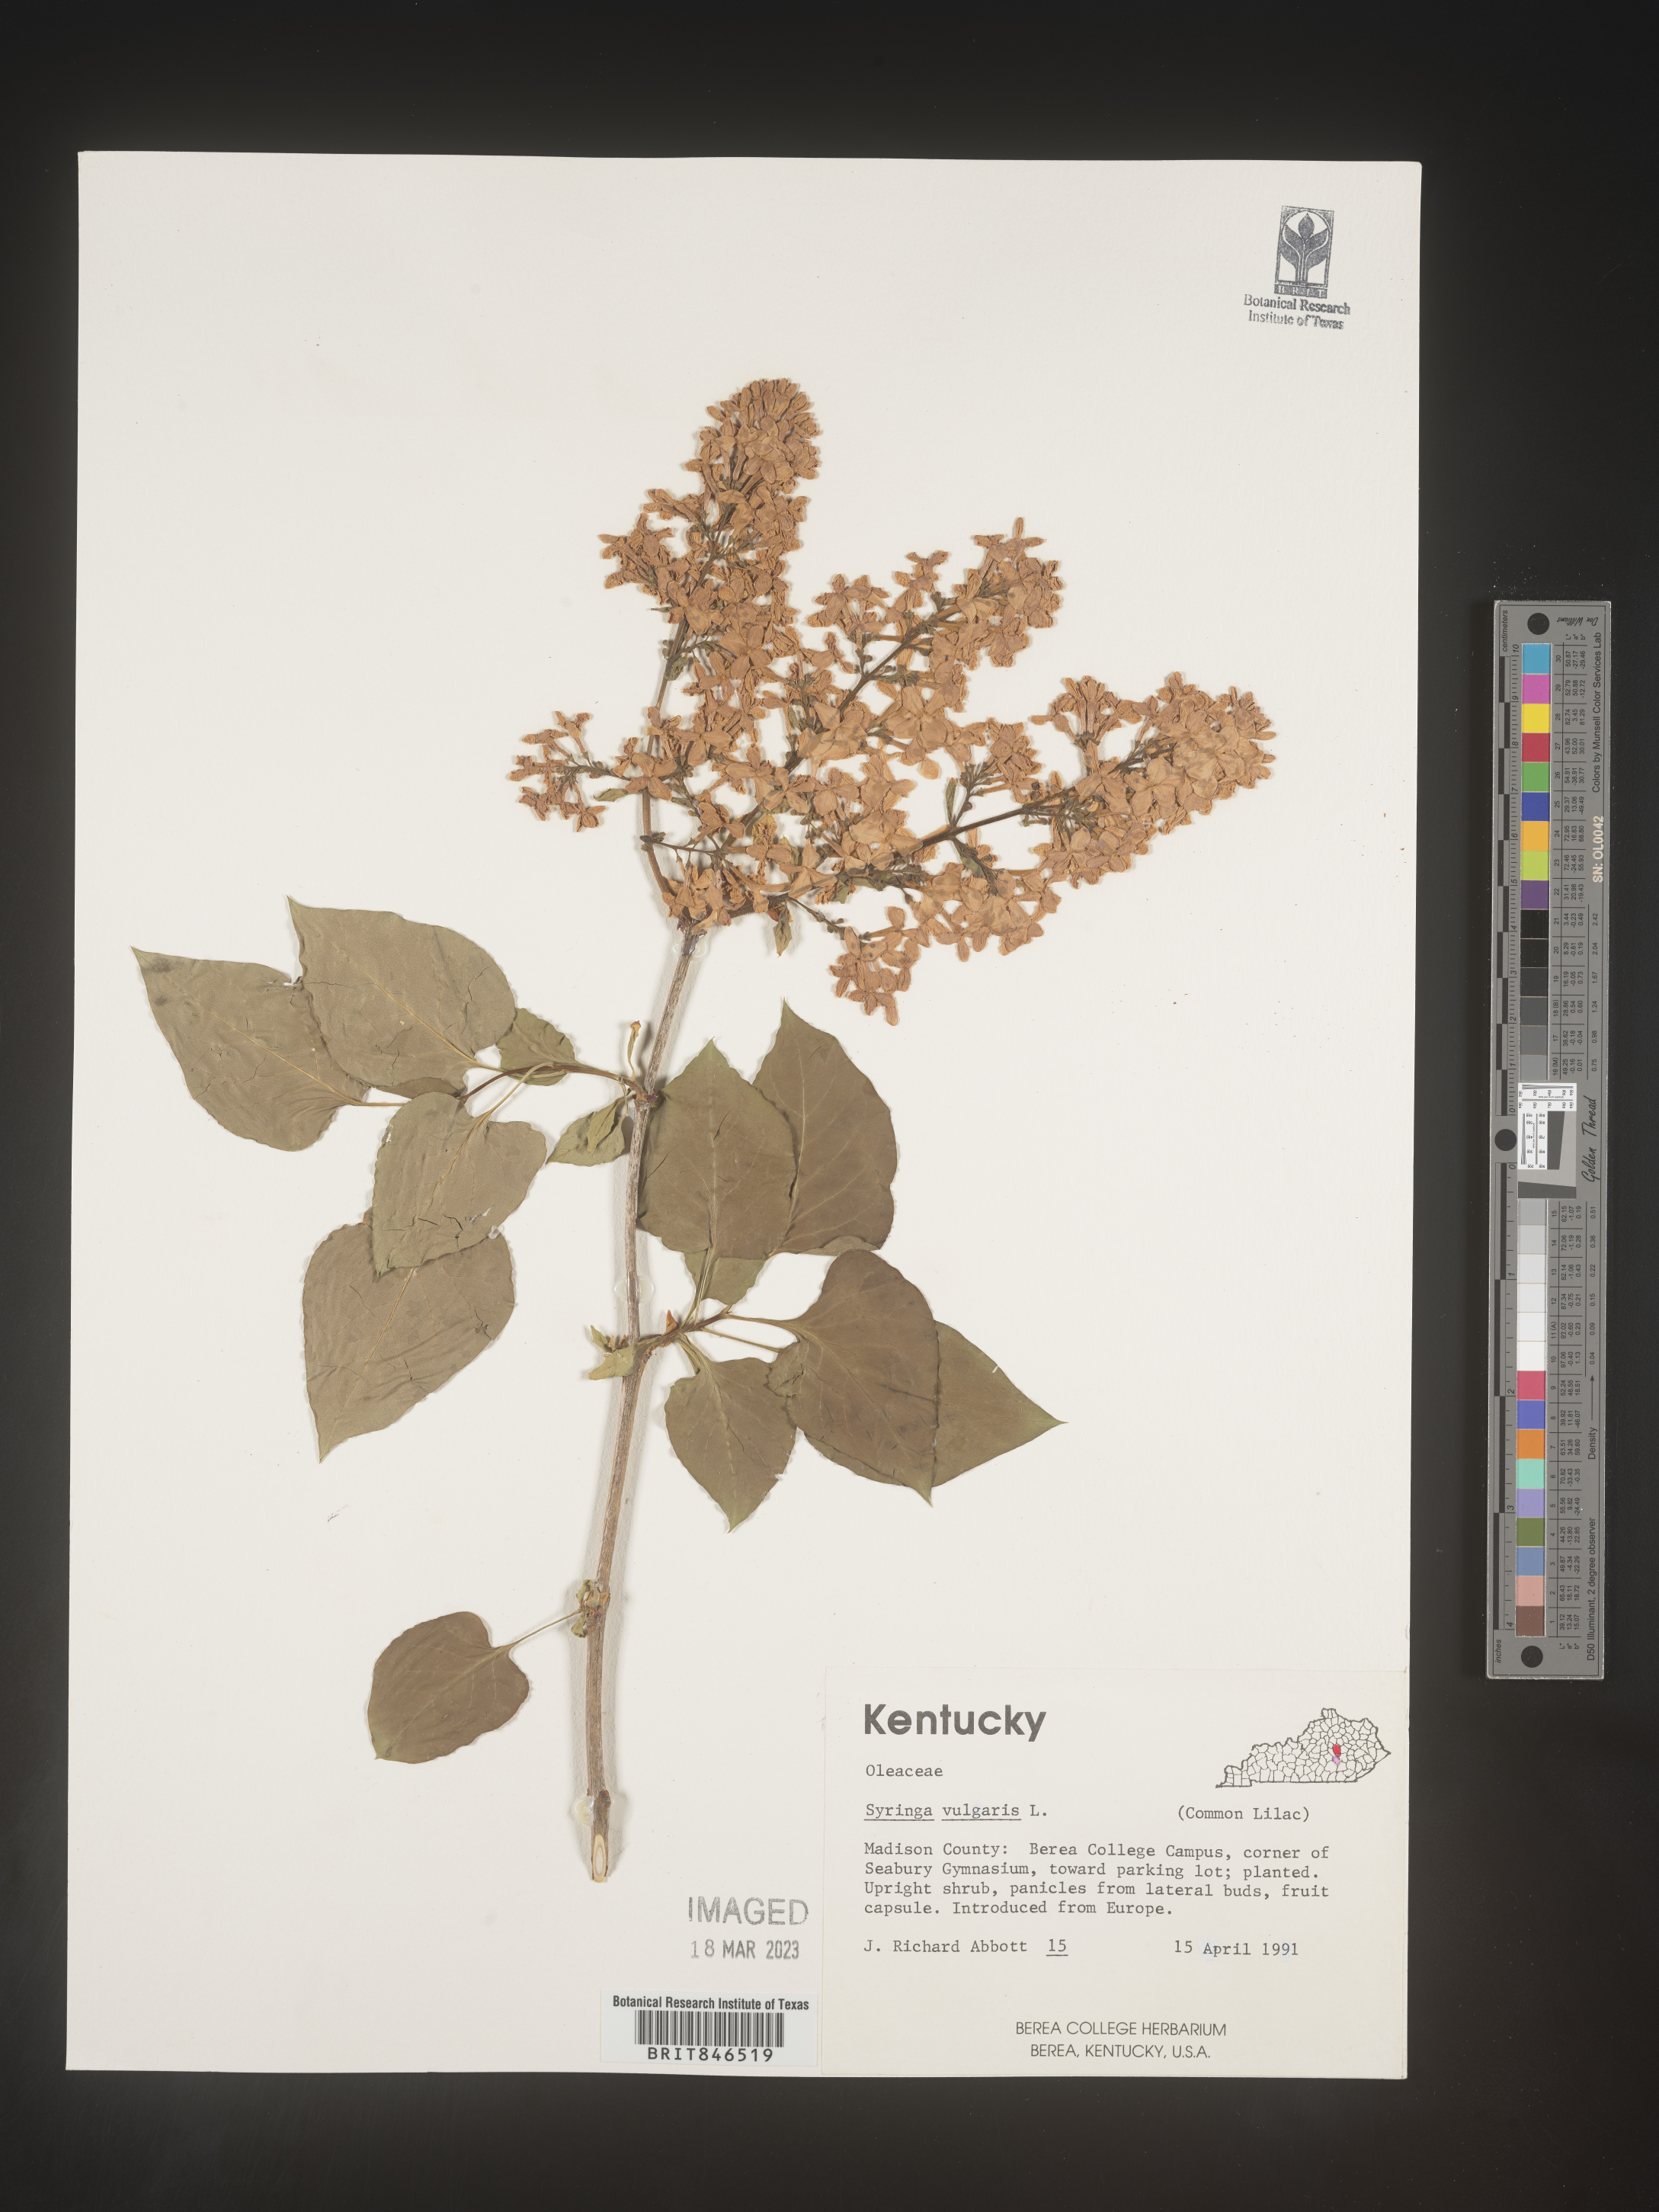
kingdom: Plantae
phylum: Tracheophyta
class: Magnoliopsida
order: Lamiales
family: Oleaceae
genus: Syringa
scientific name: Syringa
